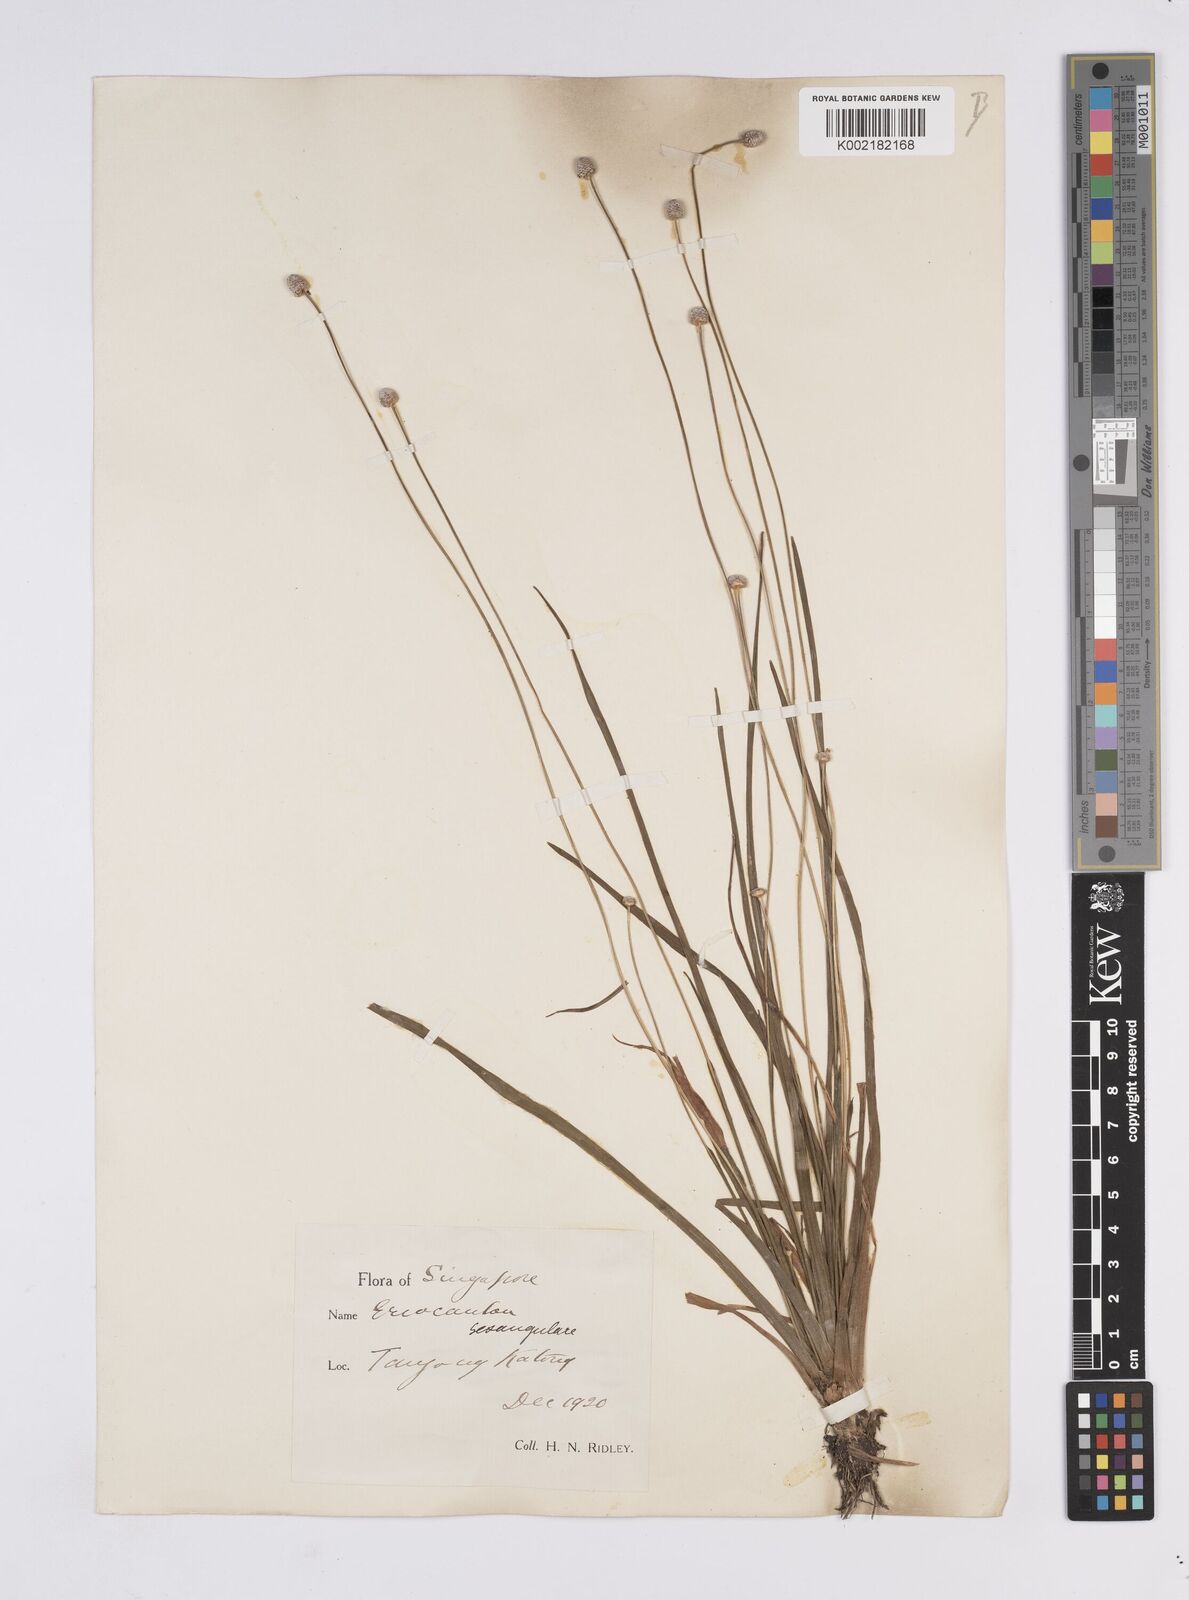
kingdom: Plantae
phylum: Tracheophyta
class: Liliopsida
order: Poales
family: Eriocaulaceae
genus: Eriocaulon
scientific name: Eriocaulon sexangulare
